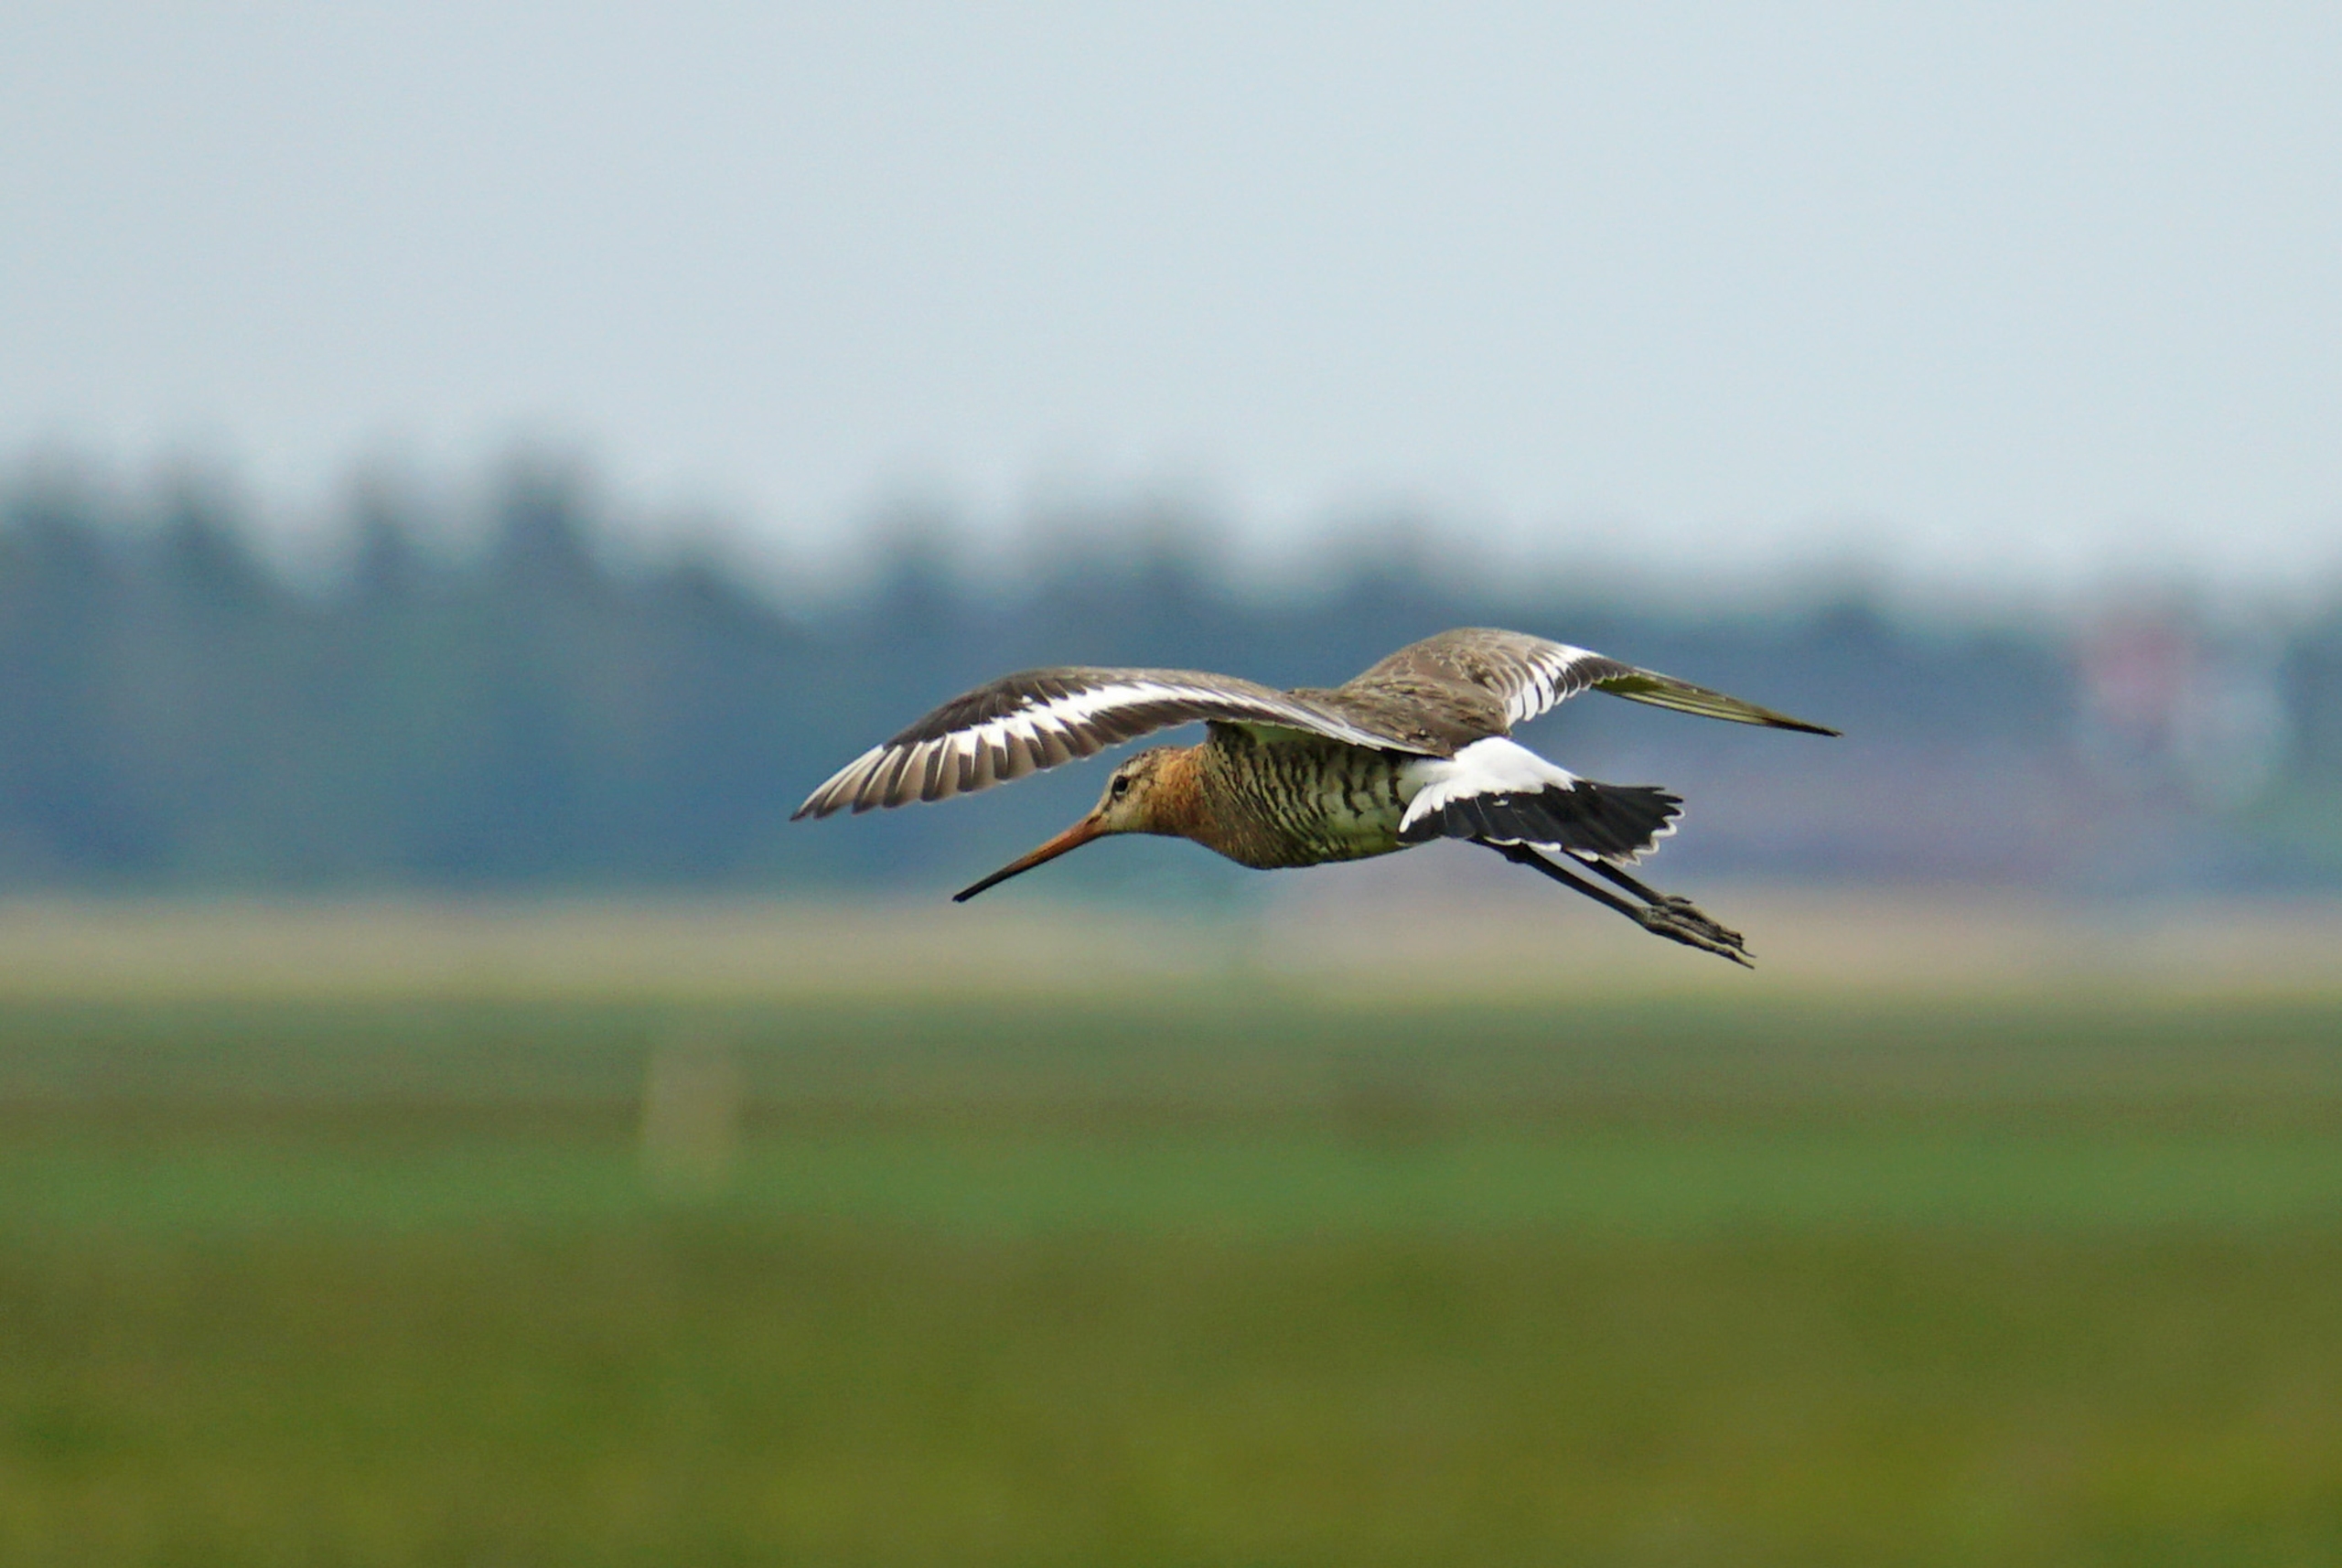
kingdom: Animalia
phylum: Chordata
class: Aves
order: Charadriiformes
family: Scolopacidae
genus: Limosa
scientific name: Limosa limosa
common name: Stor kobbersneppe
